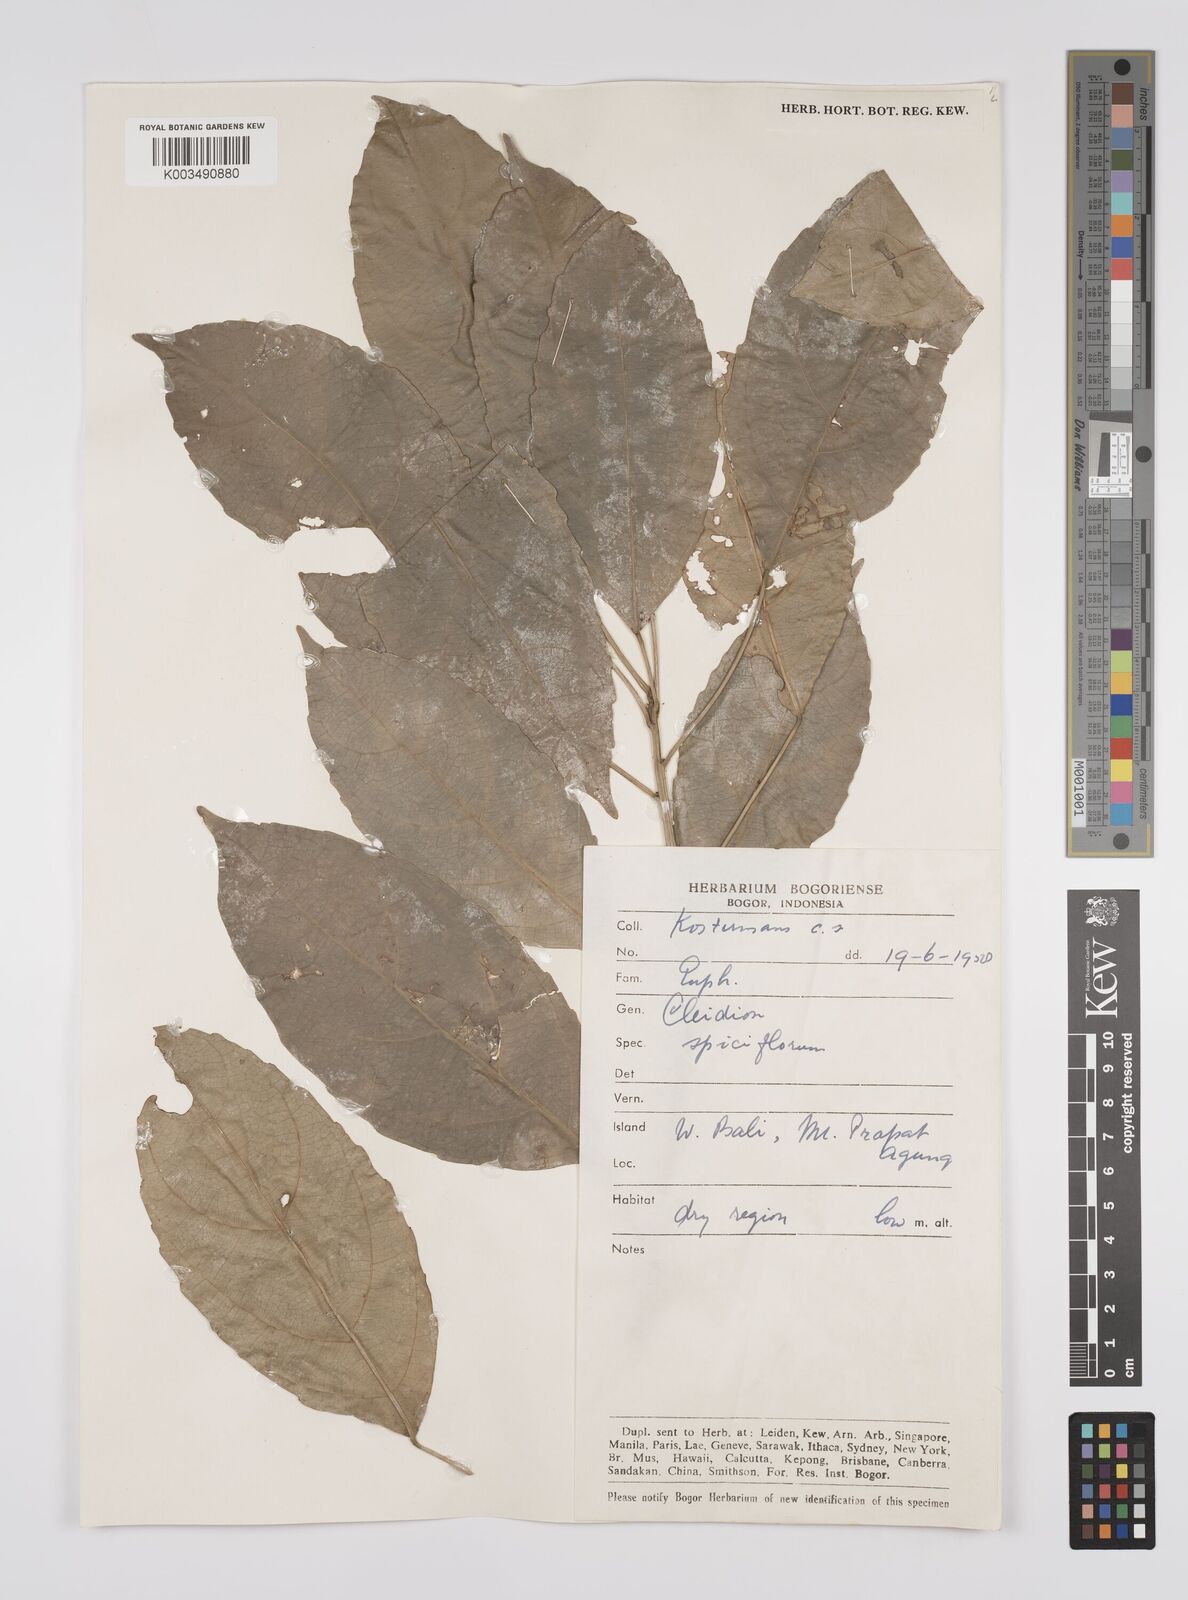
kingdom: Plantae
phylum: Tracheophyta
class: Magnoliopsida
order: Malpighiales
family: Euphorbiaceae
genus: Acalypha
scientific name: Acalypha spiciflora
